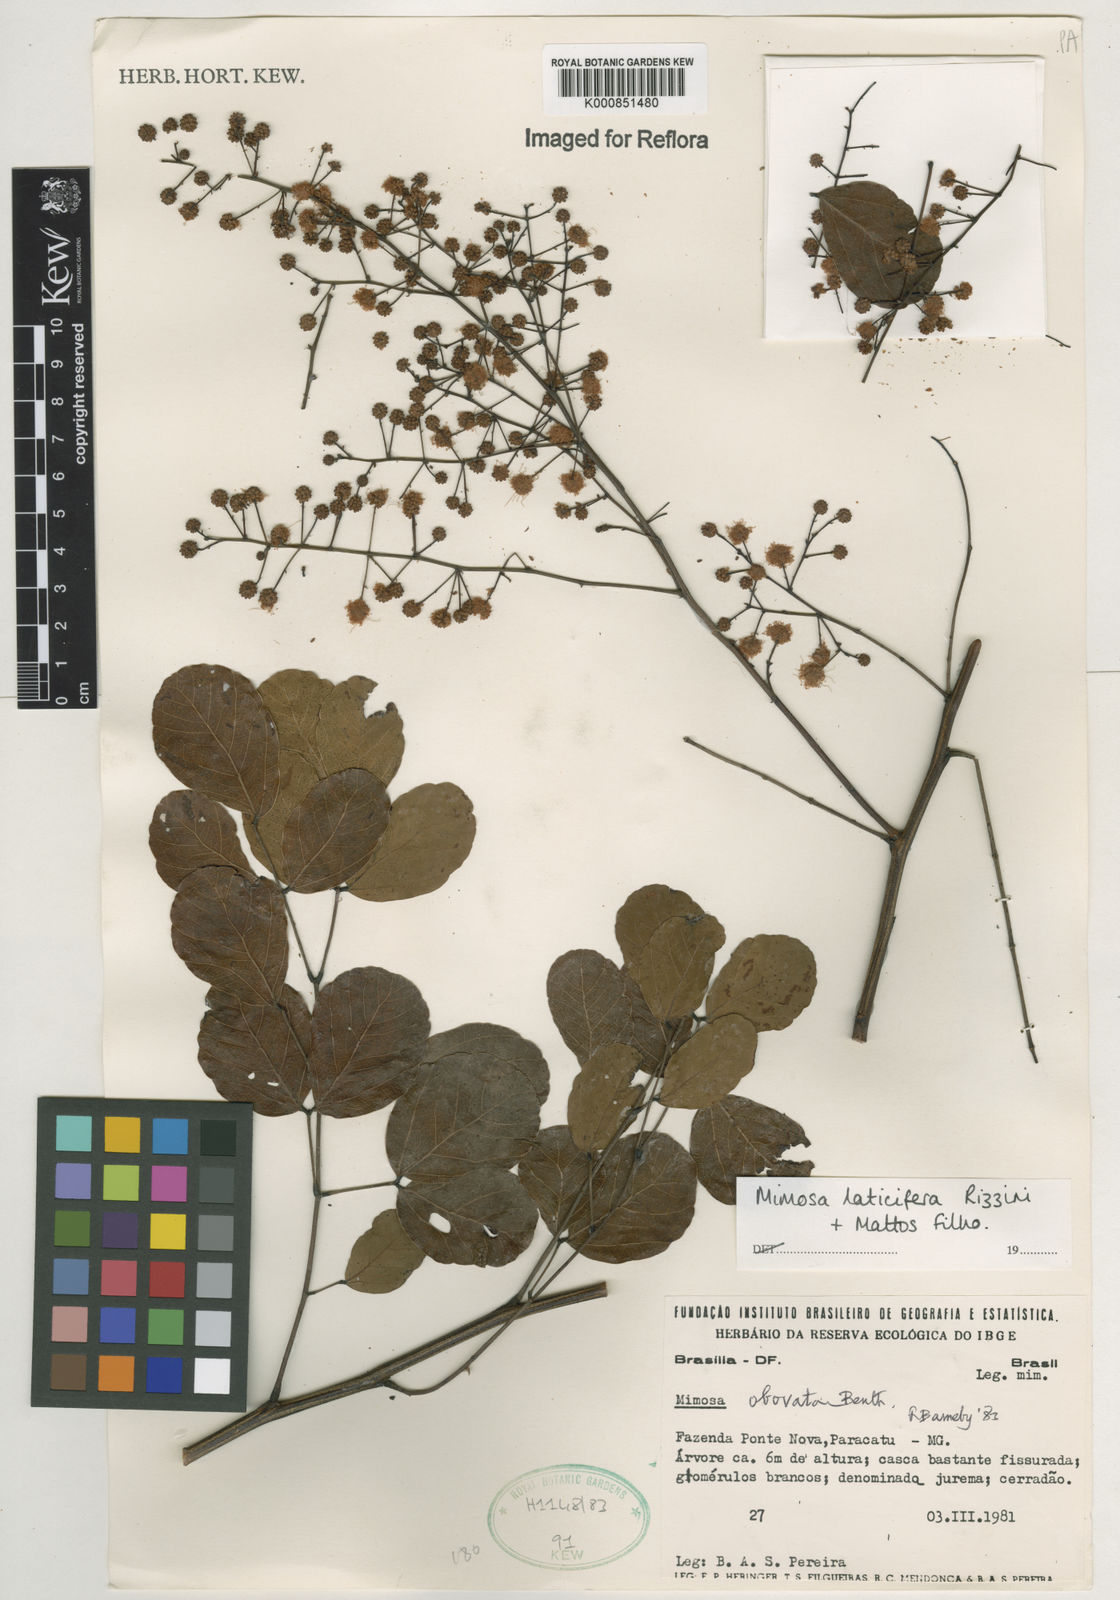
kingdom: Plantae
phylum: Tracheophyta
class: Magnoliopsida
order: Fabales
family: Fabaceae
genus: Mimosa
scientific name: Mimosa laticifera
